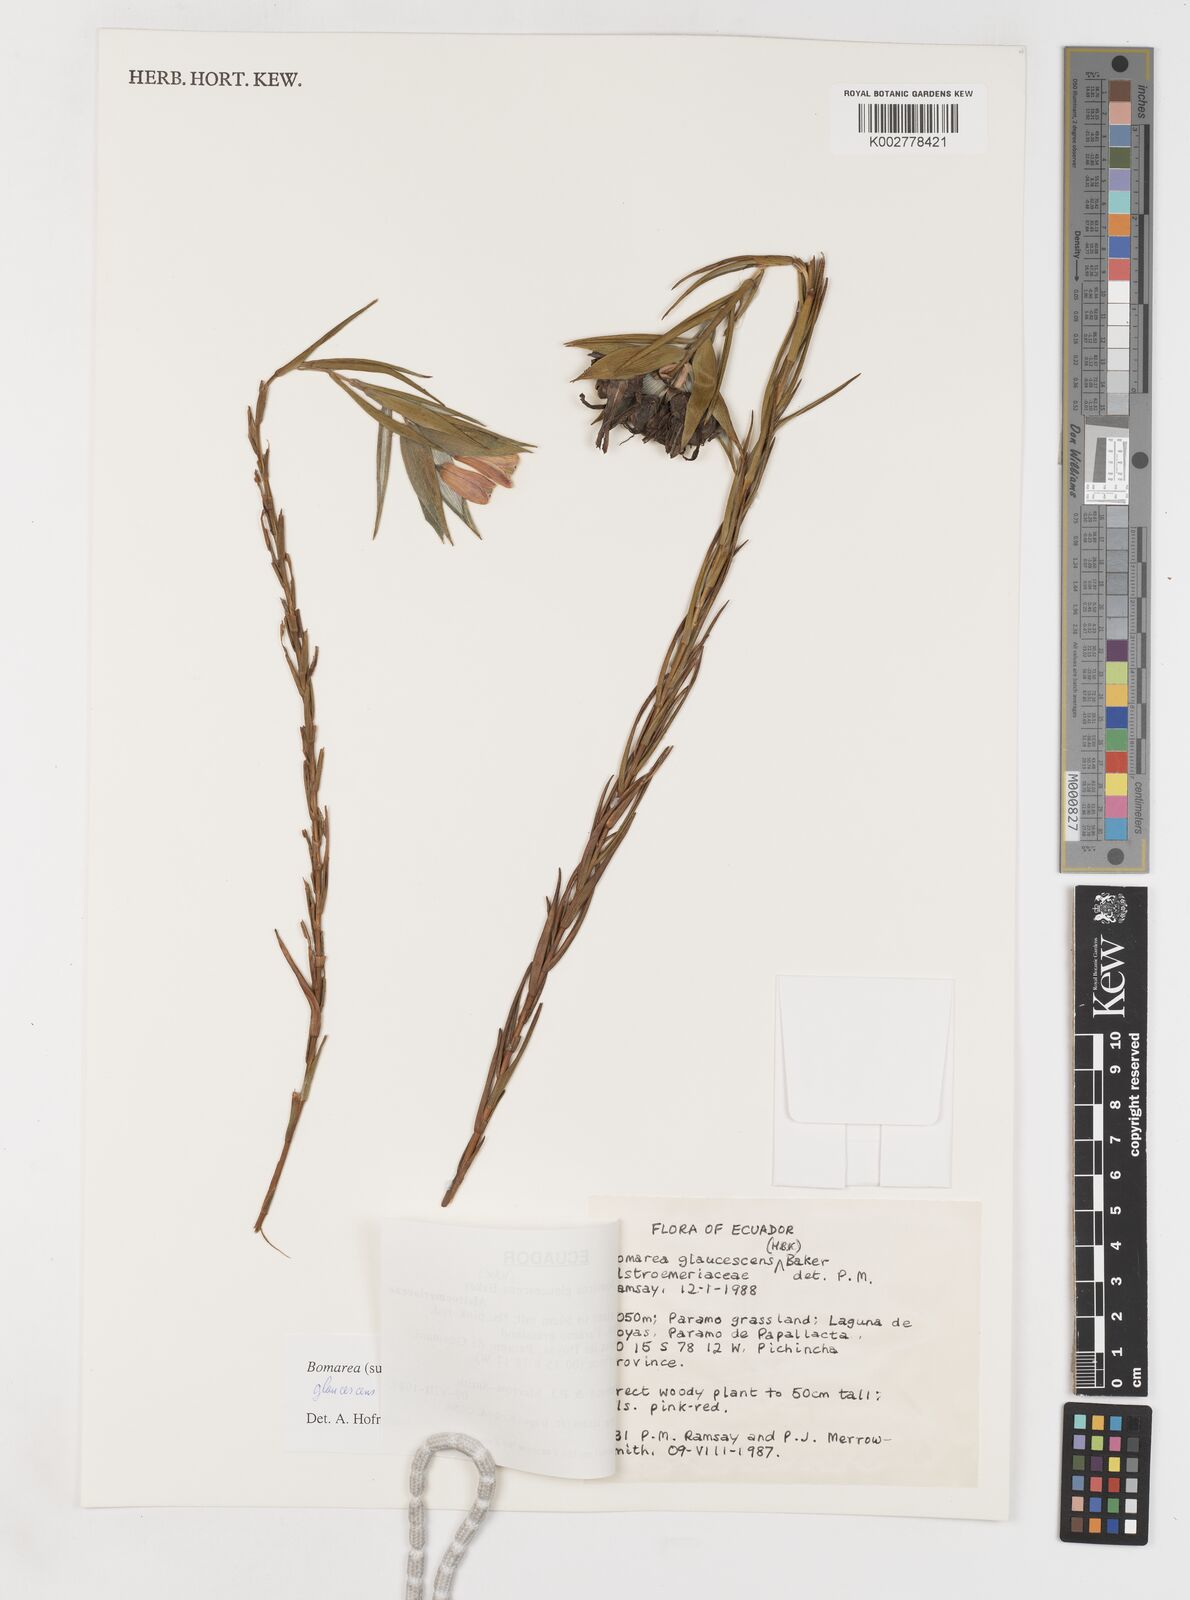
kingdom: Plantae
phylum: Tracheophyta
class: Liliopsida
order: Liliales
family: Alstroemeriaceae
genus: Bomarea
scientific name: Bomarea glaucescens
